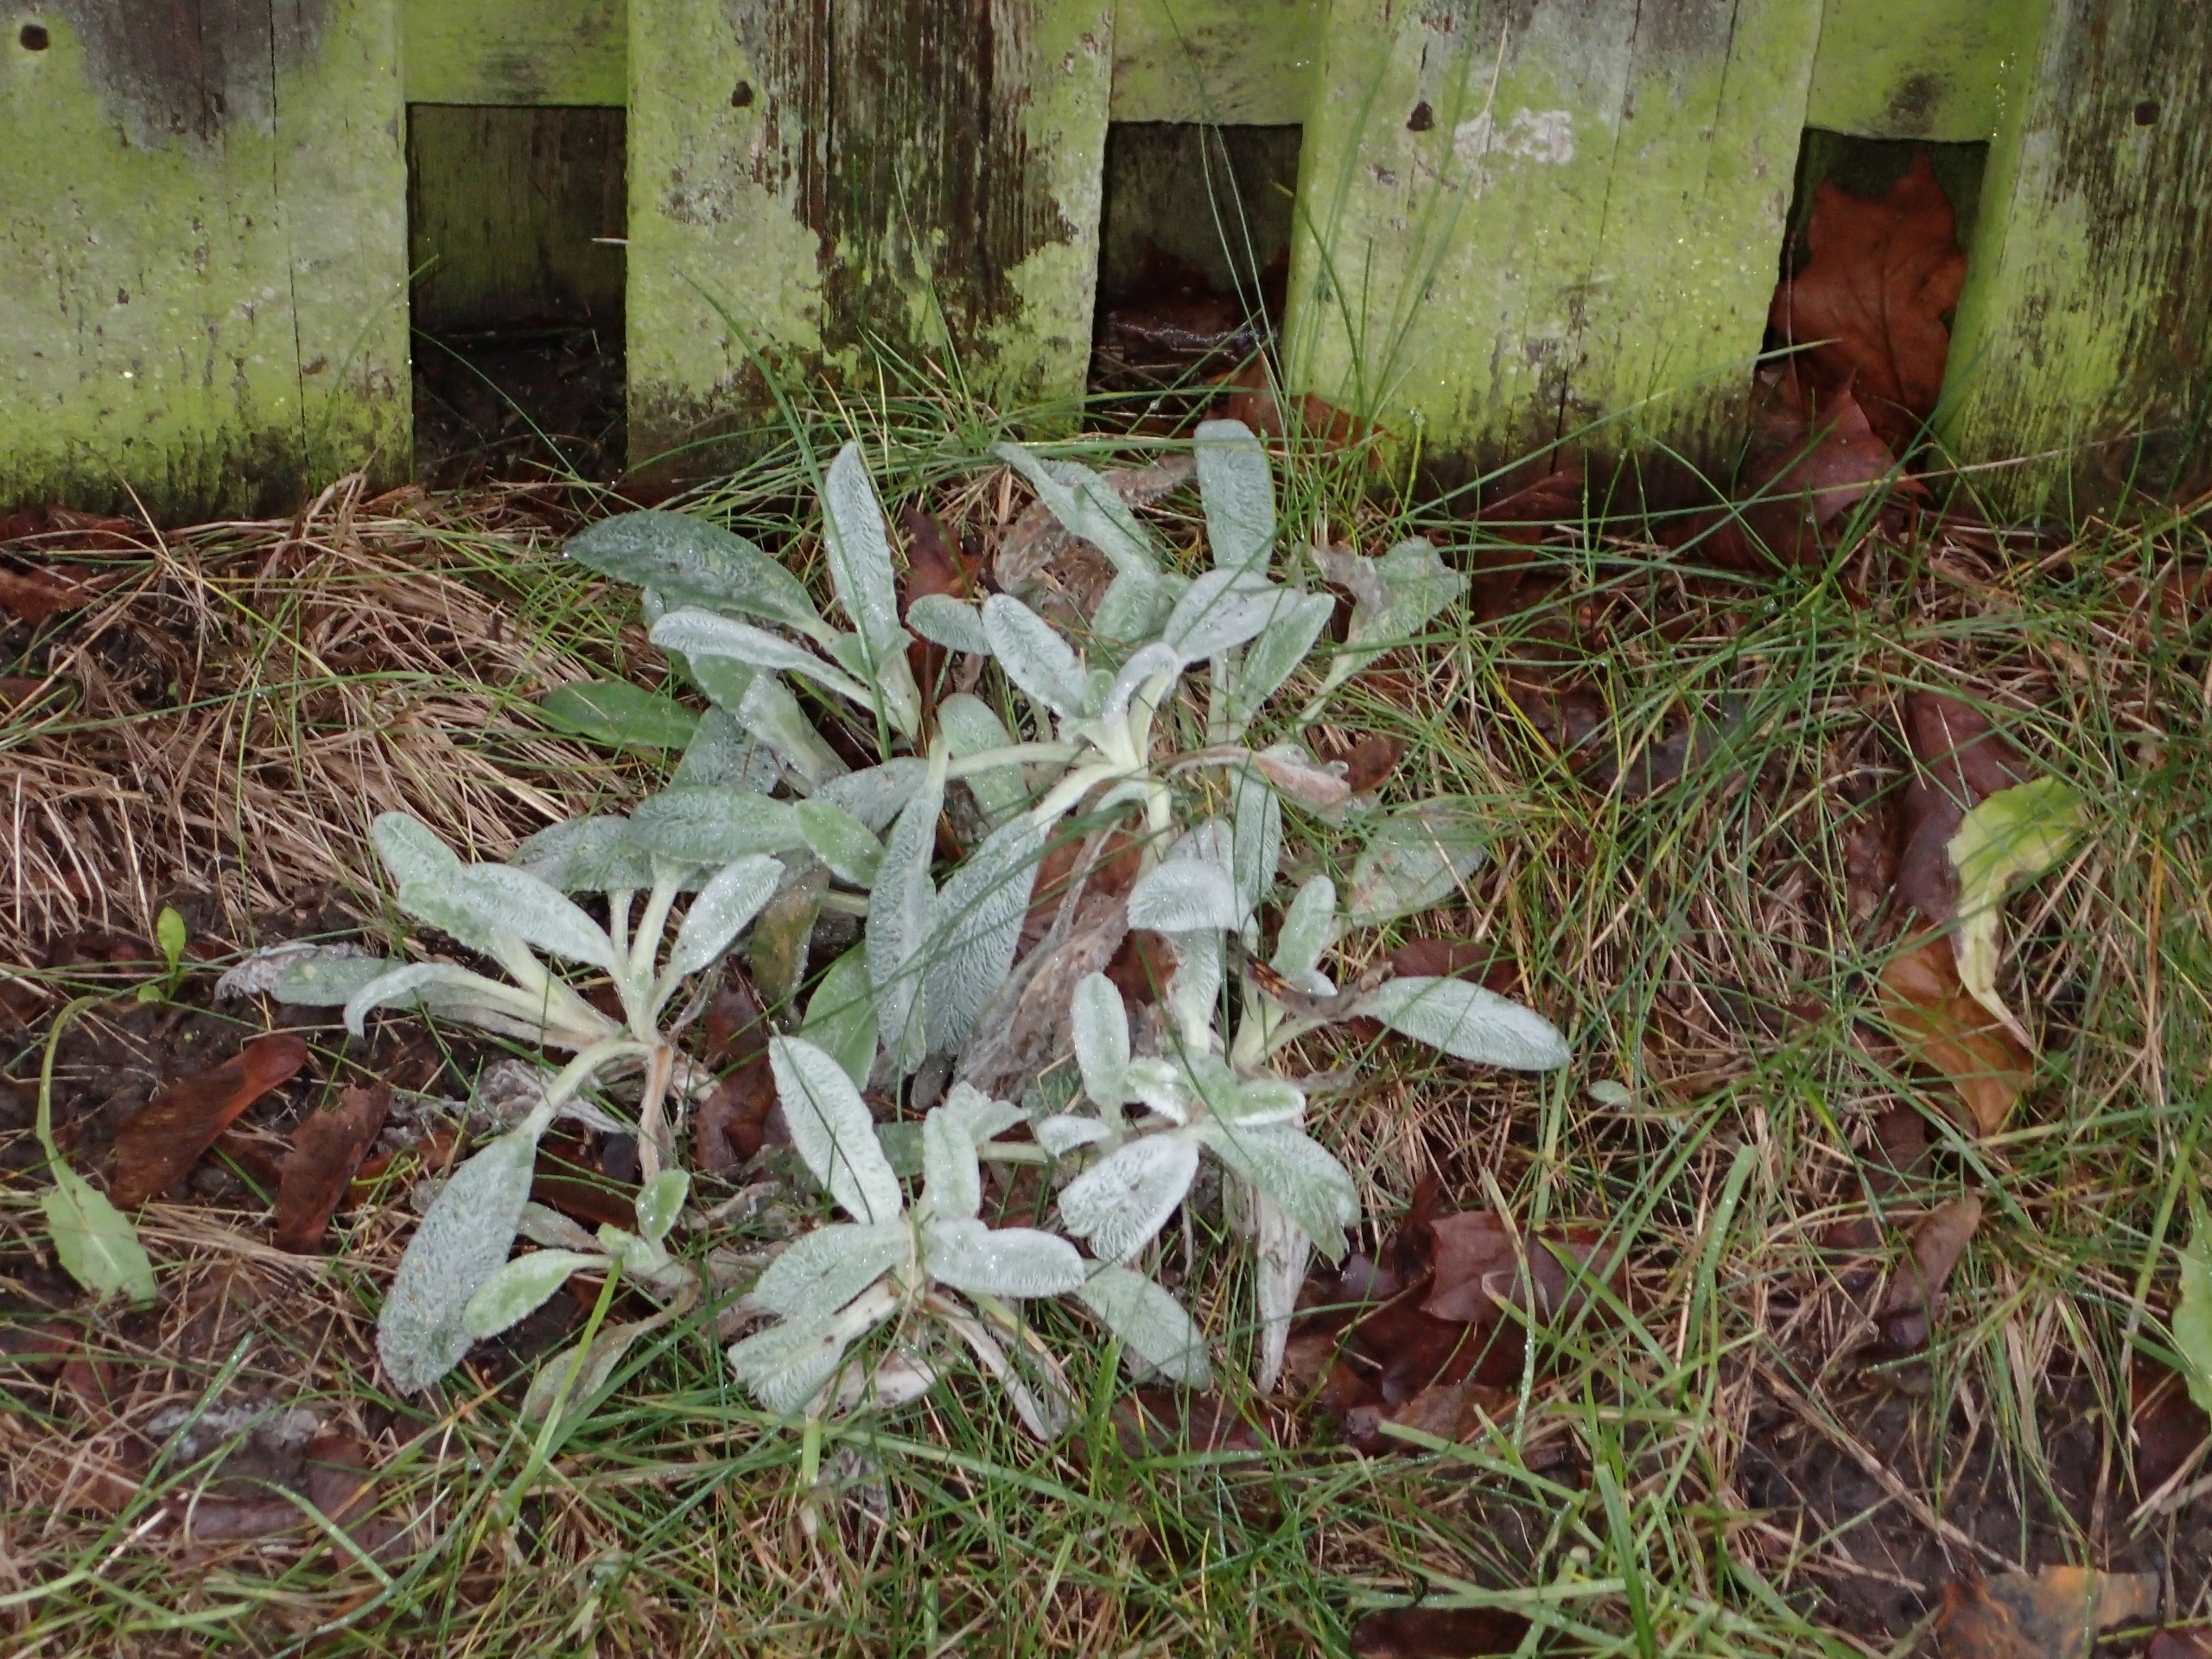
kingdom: Plantae
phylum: Tracheophyta
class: Magnoliopsida
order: Lamiales
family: Lamiaceae
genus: Stachys
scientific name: Stachys byzantina
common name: Lammeøre
